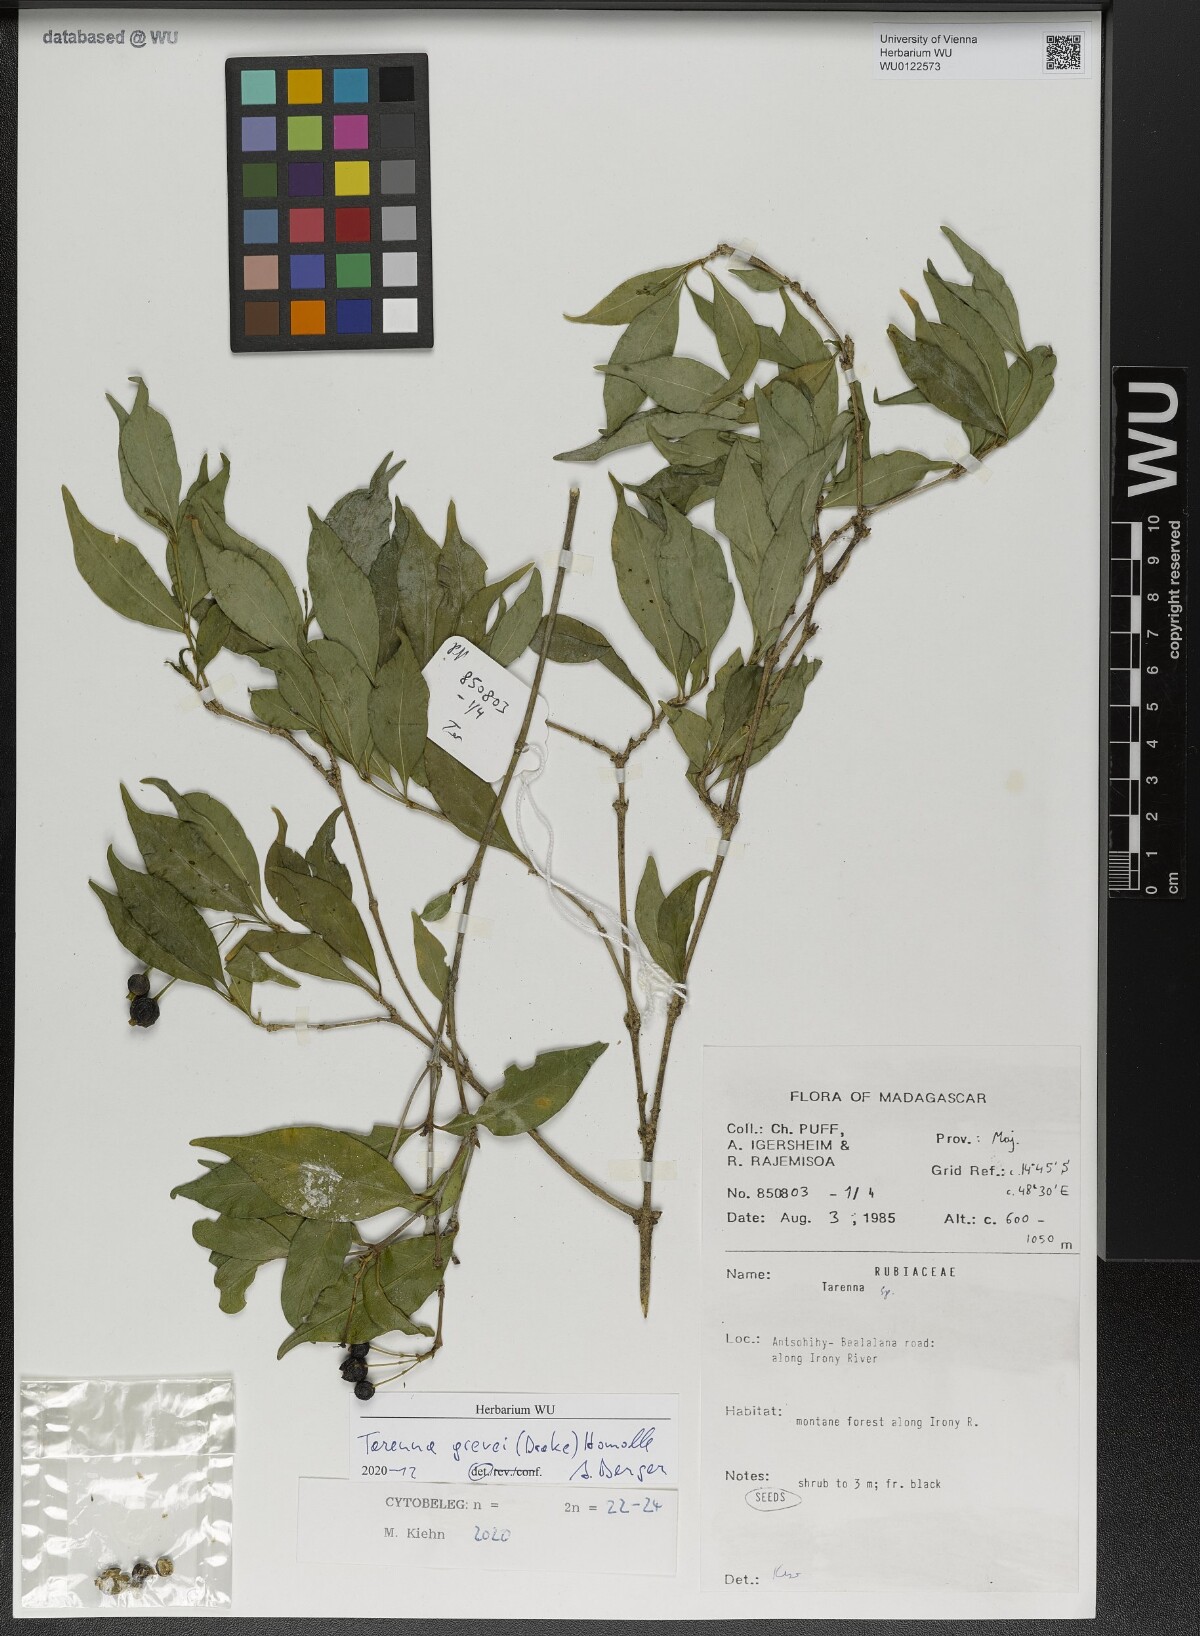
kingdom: Plantae
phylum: Tracheophyta
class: Magnoliopsida
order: Gentianales
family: Rubiaceae
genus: Tarenna
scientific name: Tarenna grevei
